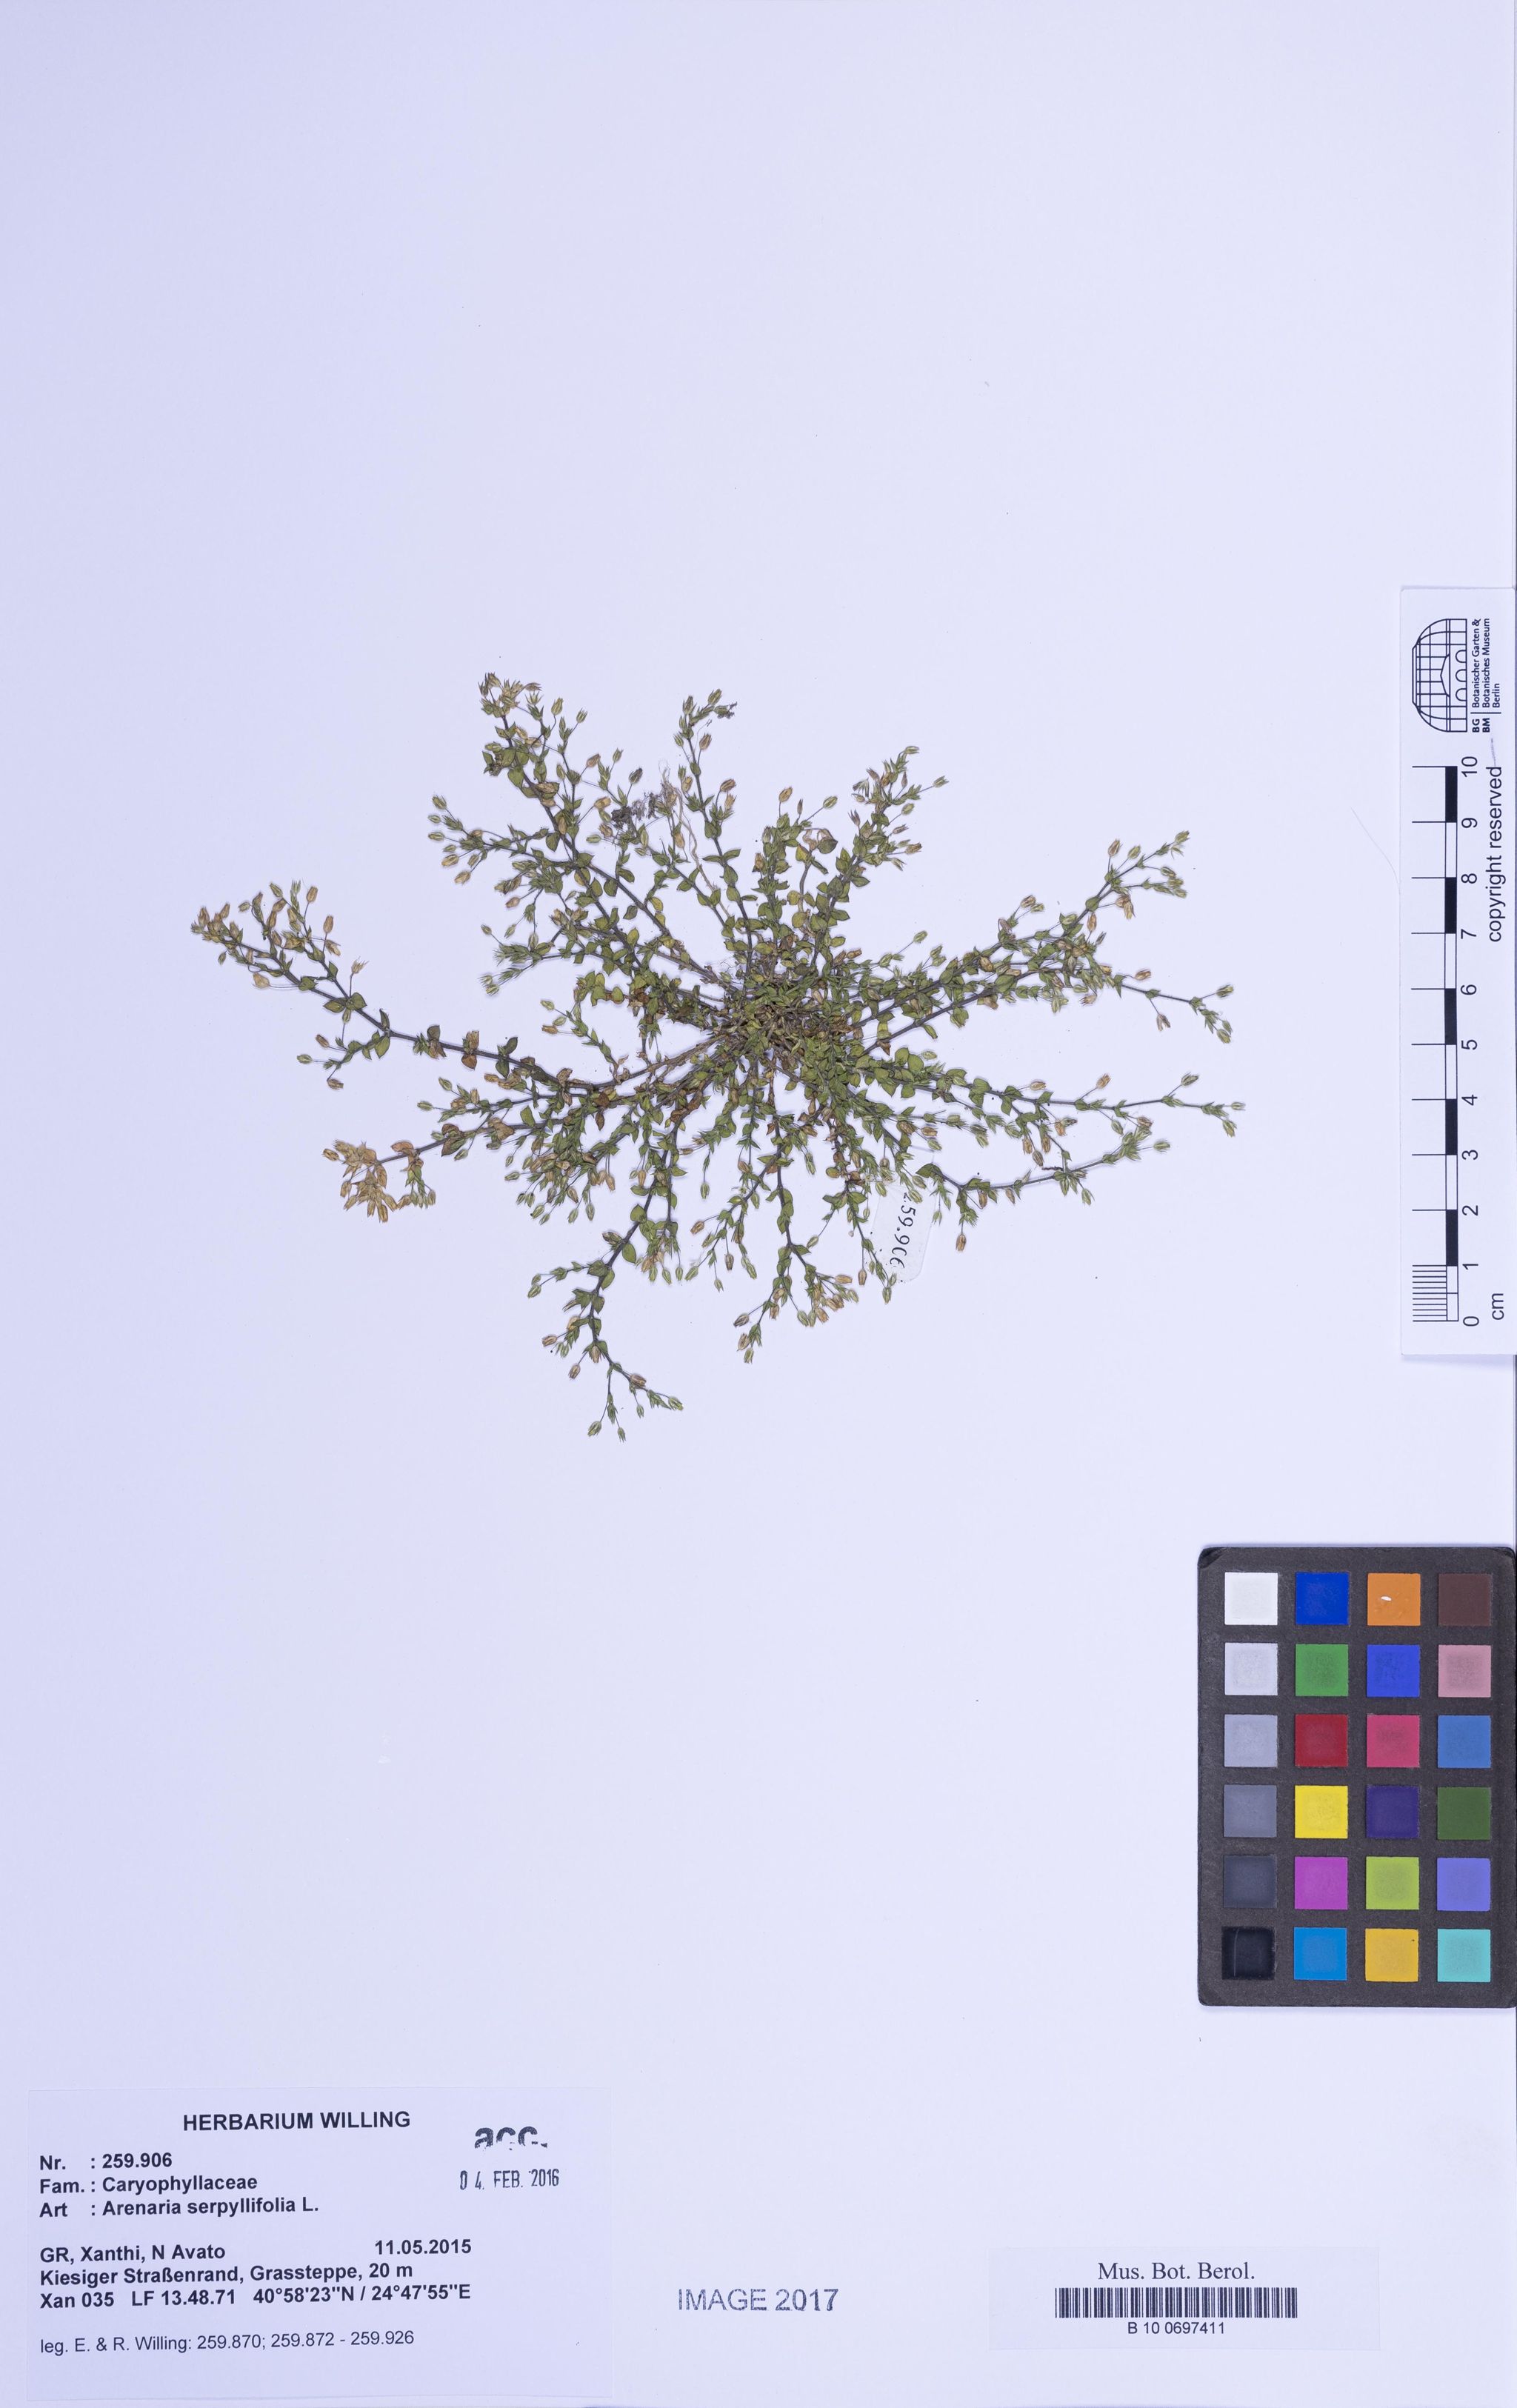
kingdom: Plantae
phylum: Tracheophyta
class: Magnoliopsida
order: Caryophyllales
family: Caryophyllaceae
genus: Arenaria
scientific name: Arenaria serpyllifolia
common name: Thyme-leaved sandwort
